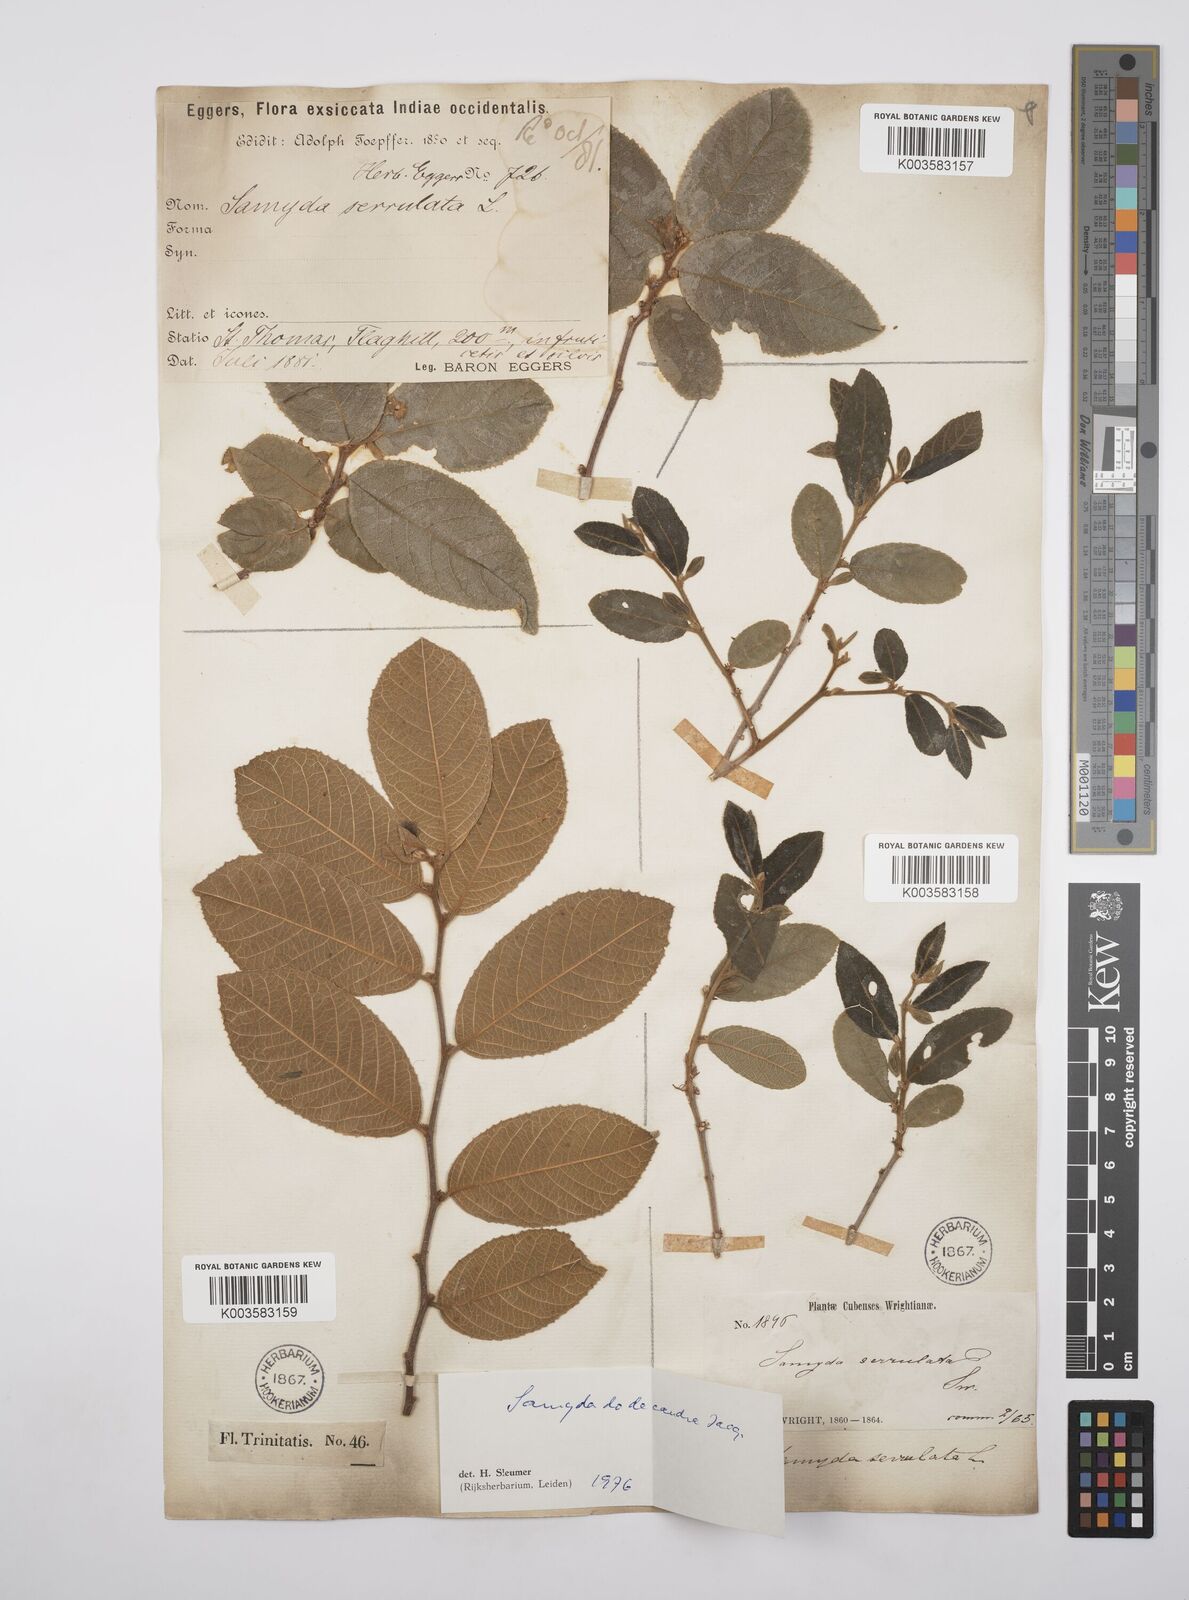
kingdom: Plantae
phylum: Tracheophyta
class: Magnoliopsida
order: Malpighiales
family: Salicaceae
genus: Casearia
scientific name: Casearia dodecandra
